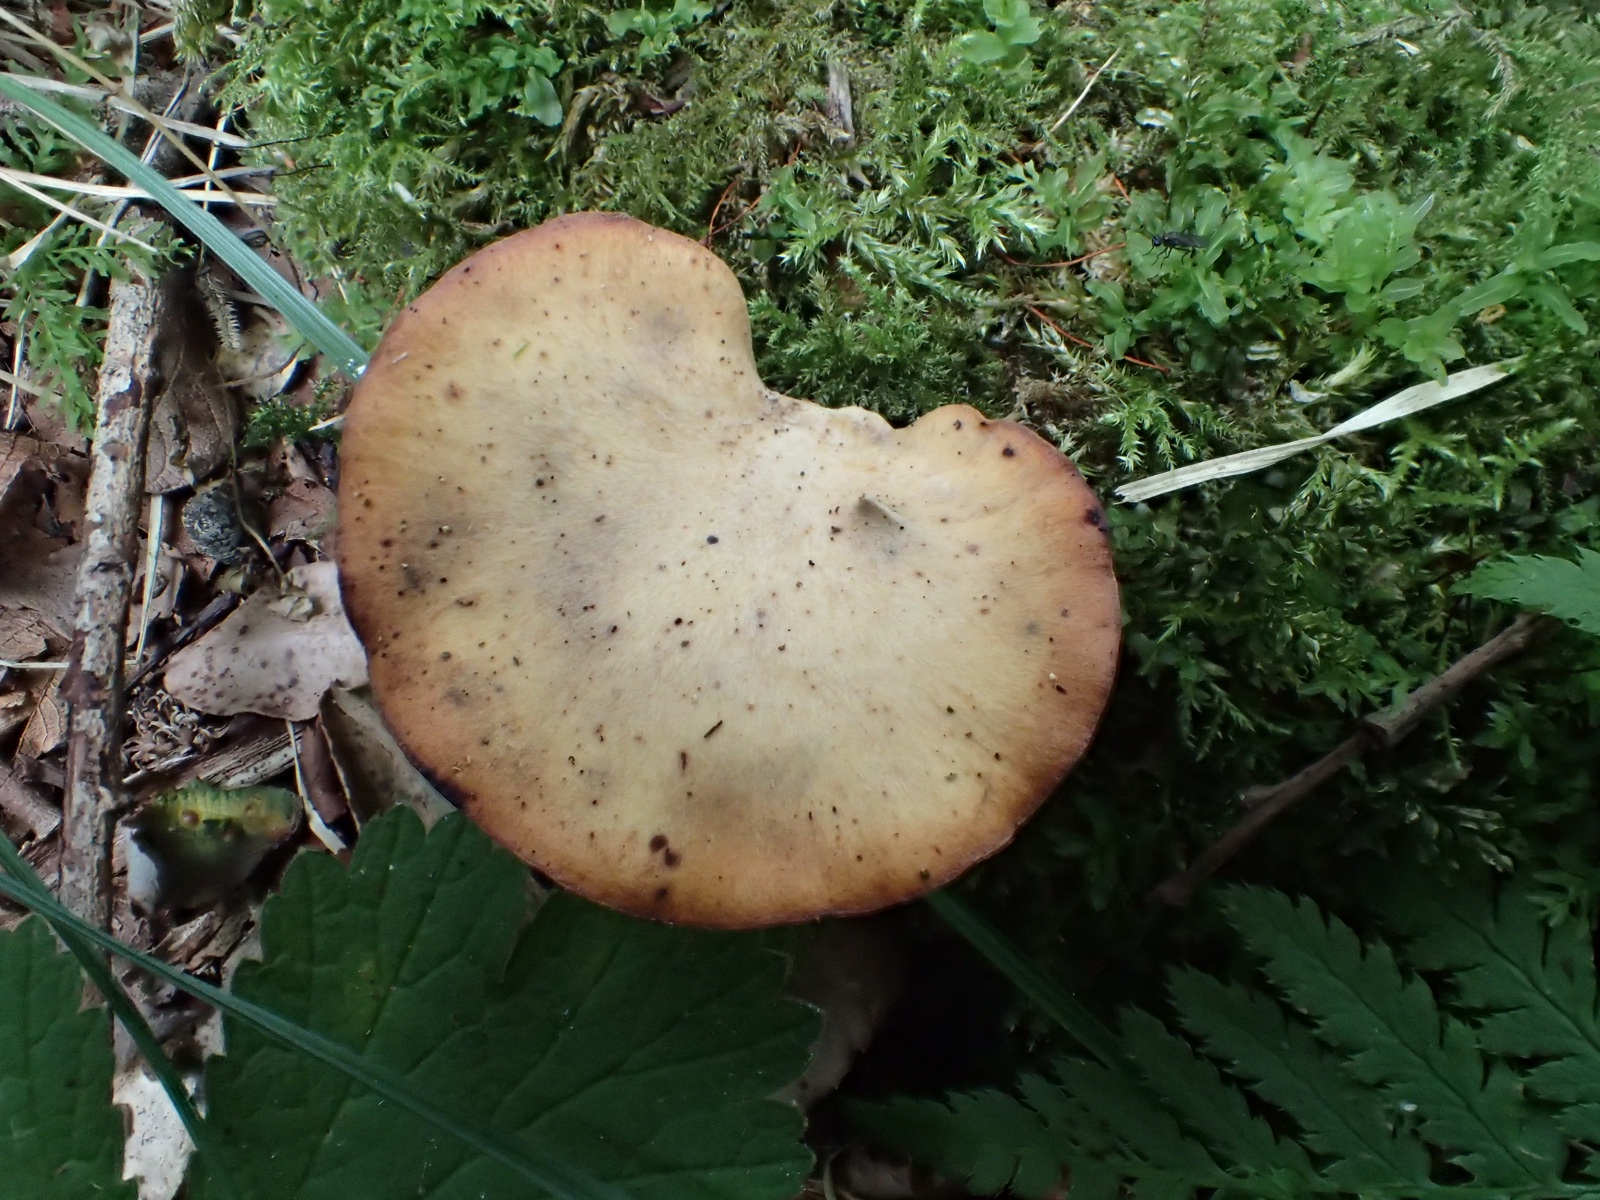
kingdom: Fungi
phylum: Basidiomycota
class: Agaricomycetes
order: Polyporales
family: Polyporaceae
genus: Cerioporus
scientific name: Cerioporus varius
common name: foranderlig stilkporesvamp
